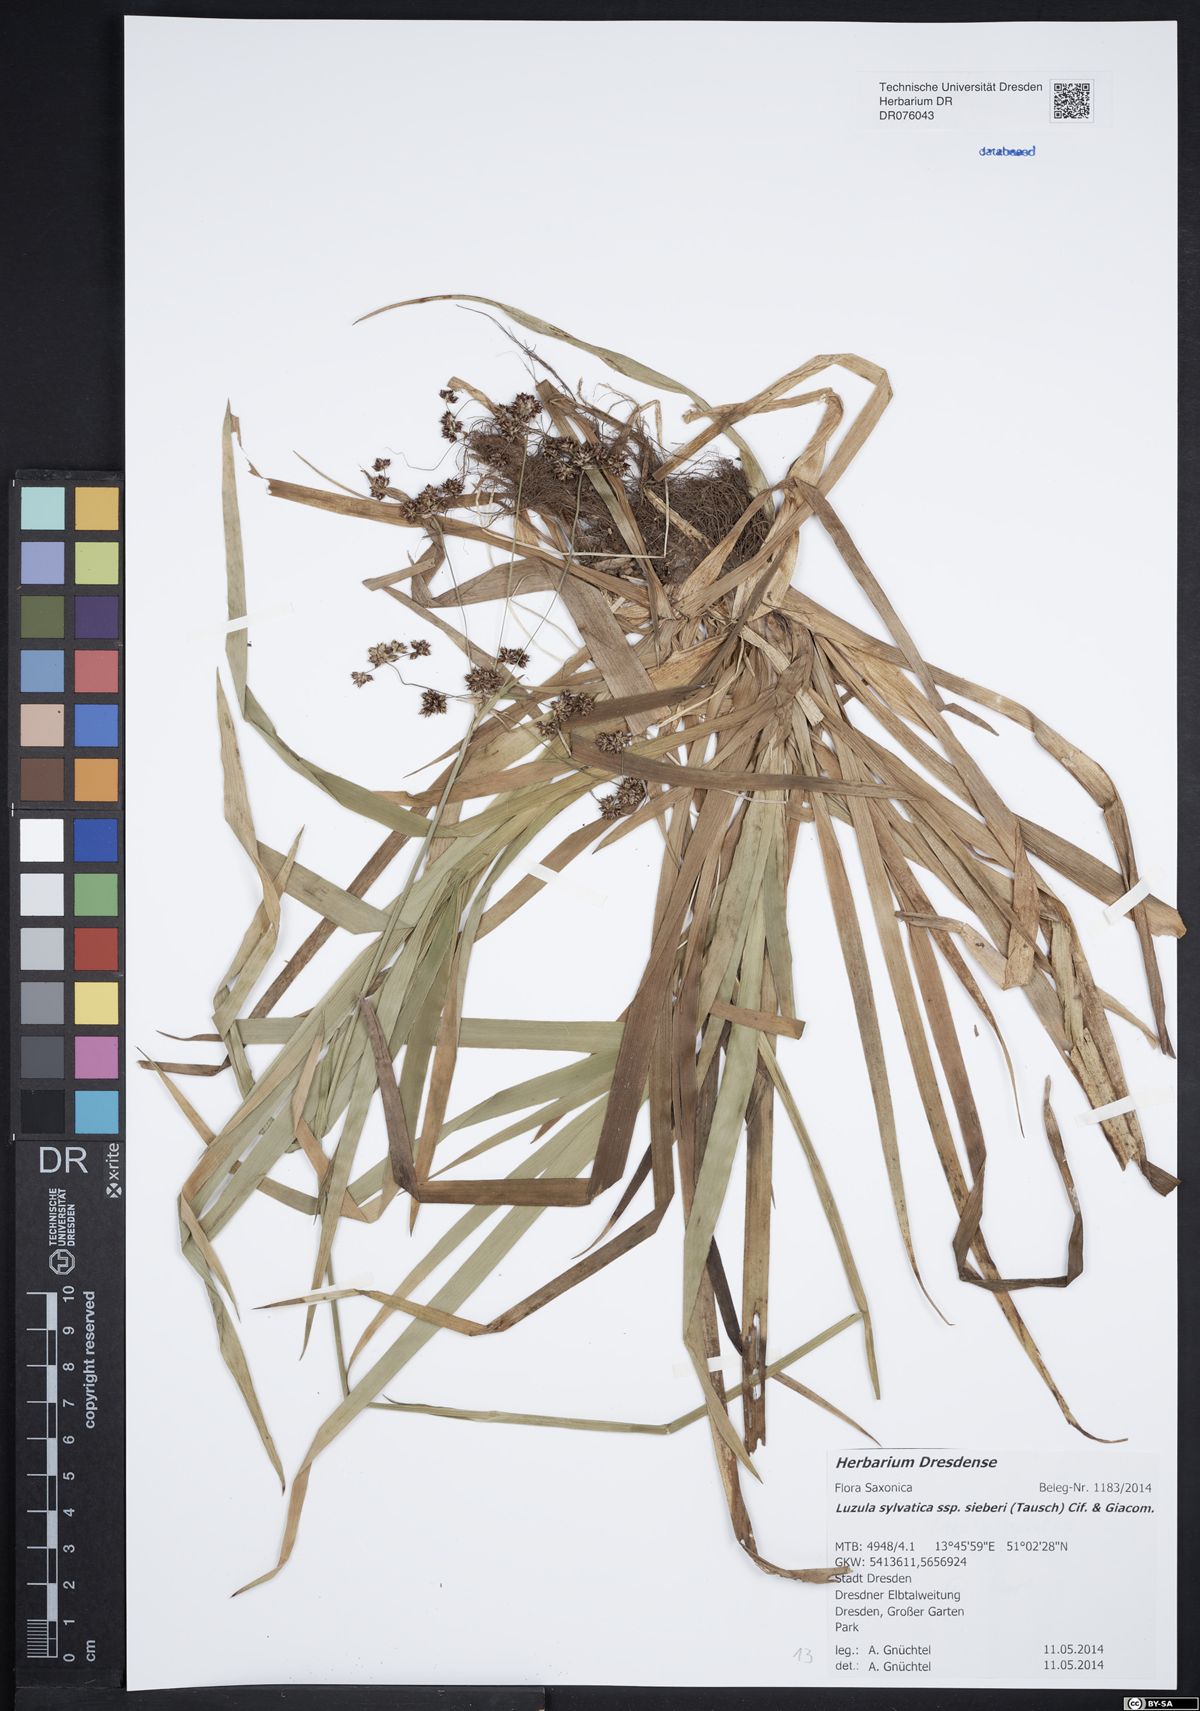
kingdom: Plantae
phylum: Tracheophyta
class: Liliopsida
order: Poales
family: Juncaceae
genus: Luzula
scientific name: Luzula sylvatica
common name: Great wood-rush
